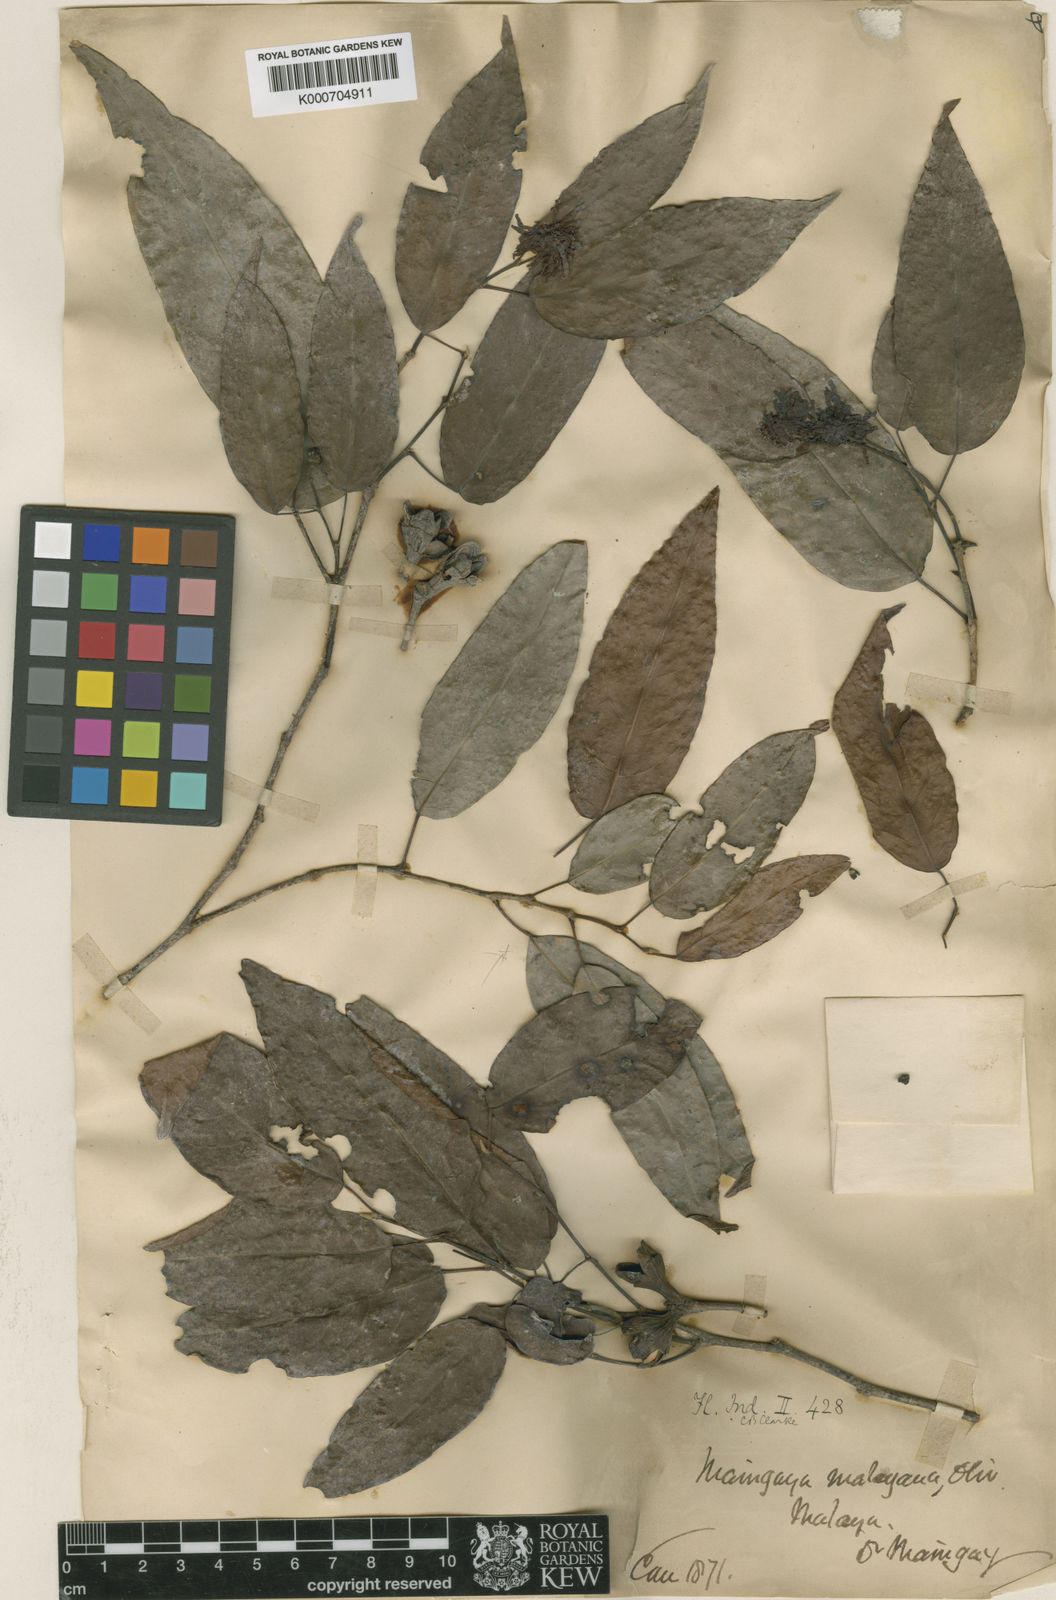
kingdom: Plantae
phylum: Tracheophyta
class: Magnoliopsida
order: Saxifragales
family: Hamamelidaceae
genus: Maingaya
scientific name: Maingaya malayana
